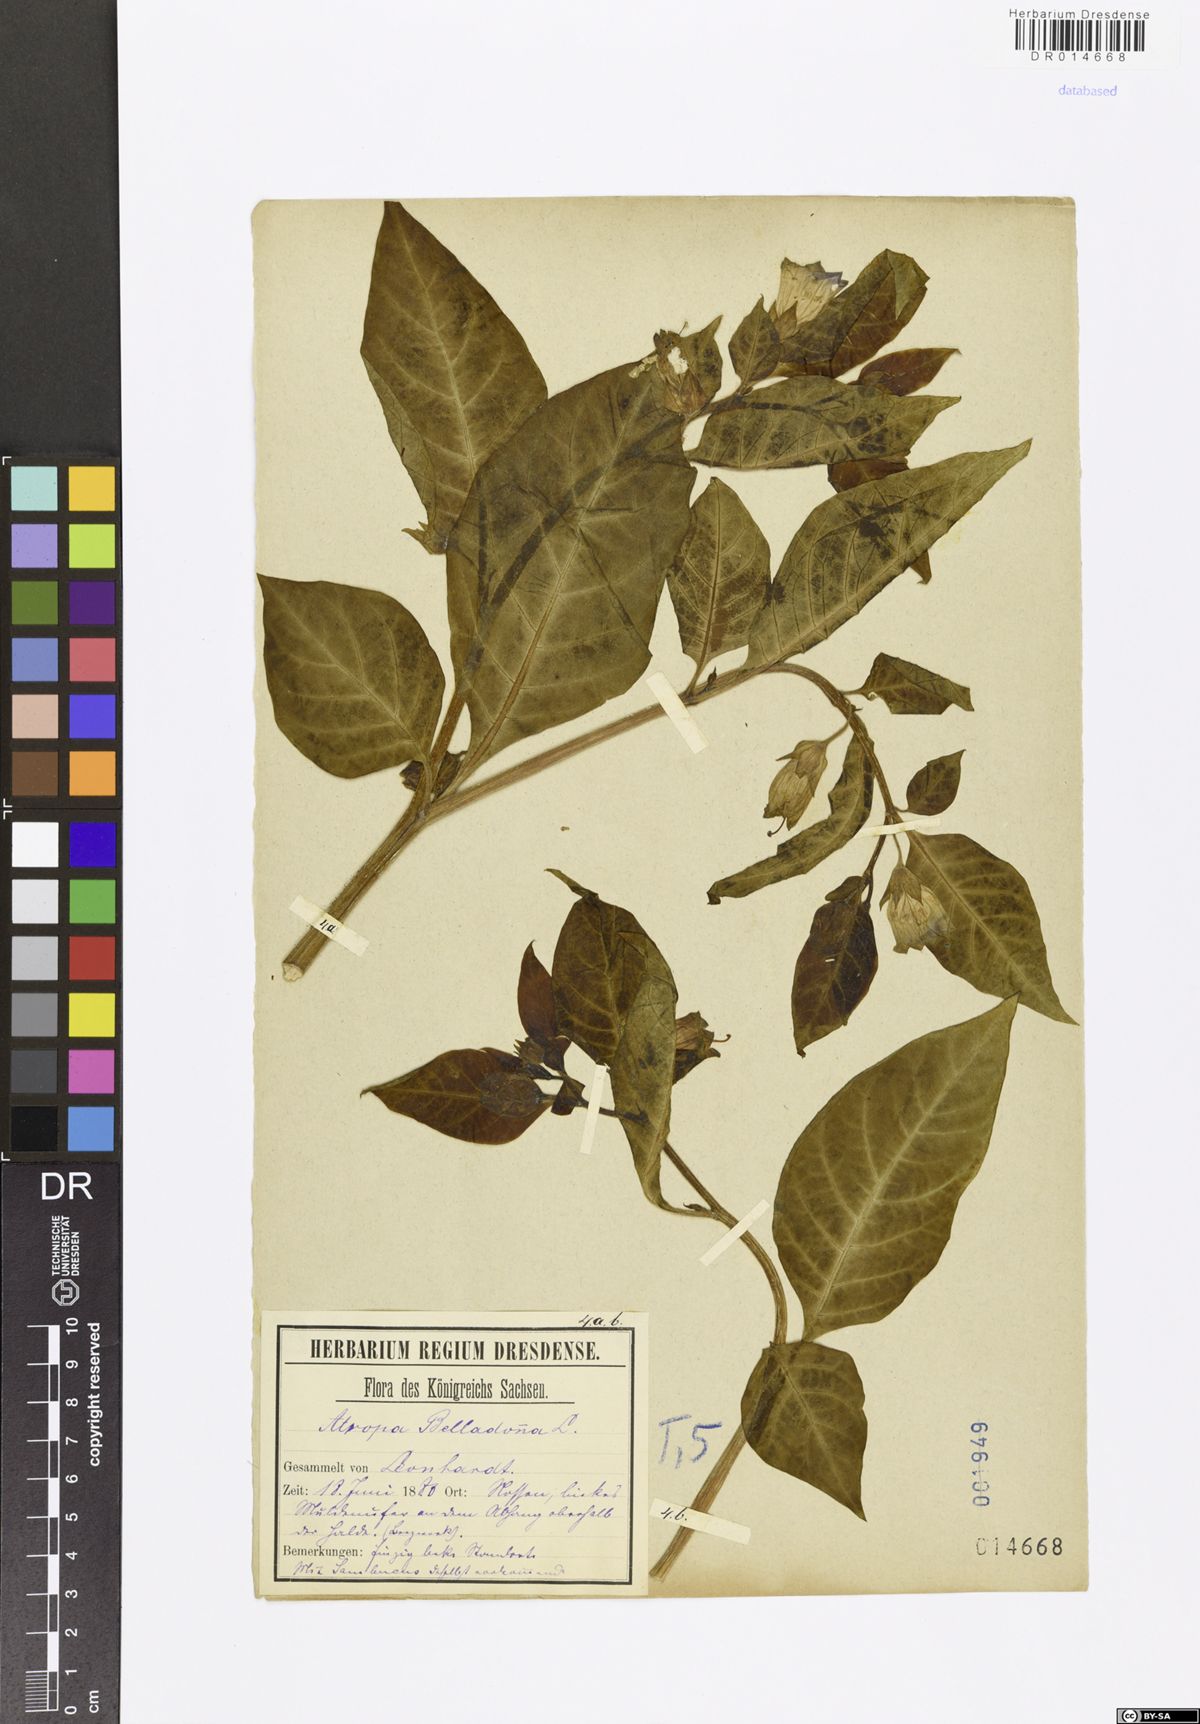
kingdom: Plantae
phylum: Tracheophyta
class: Magnoliopsida
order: Solanales
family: Solanaceae
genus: Atropa
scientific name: Atropa belladonna
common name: Deadly nightshade
